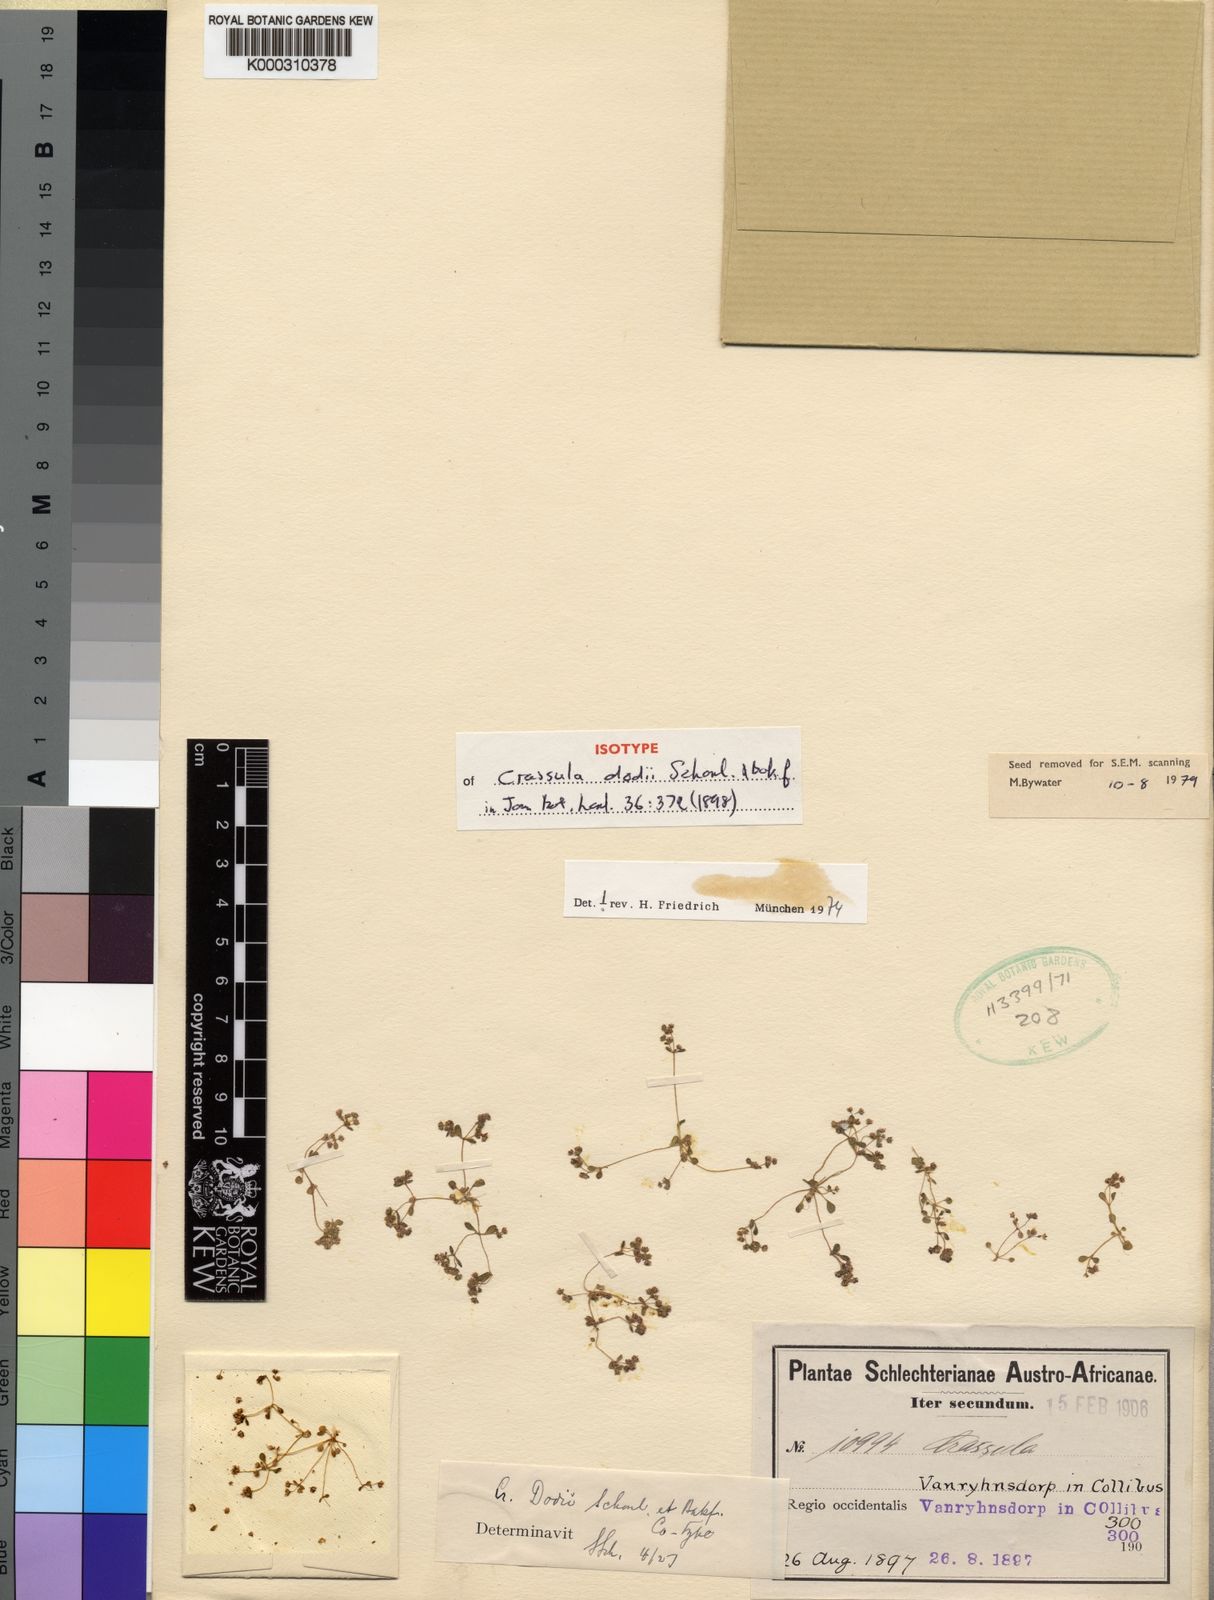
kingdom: Plantae
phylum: Tracheophyta
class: Magnoliopsida
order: Saxifragales
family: Crassulaceae
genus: Crassula
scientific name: Crassula
